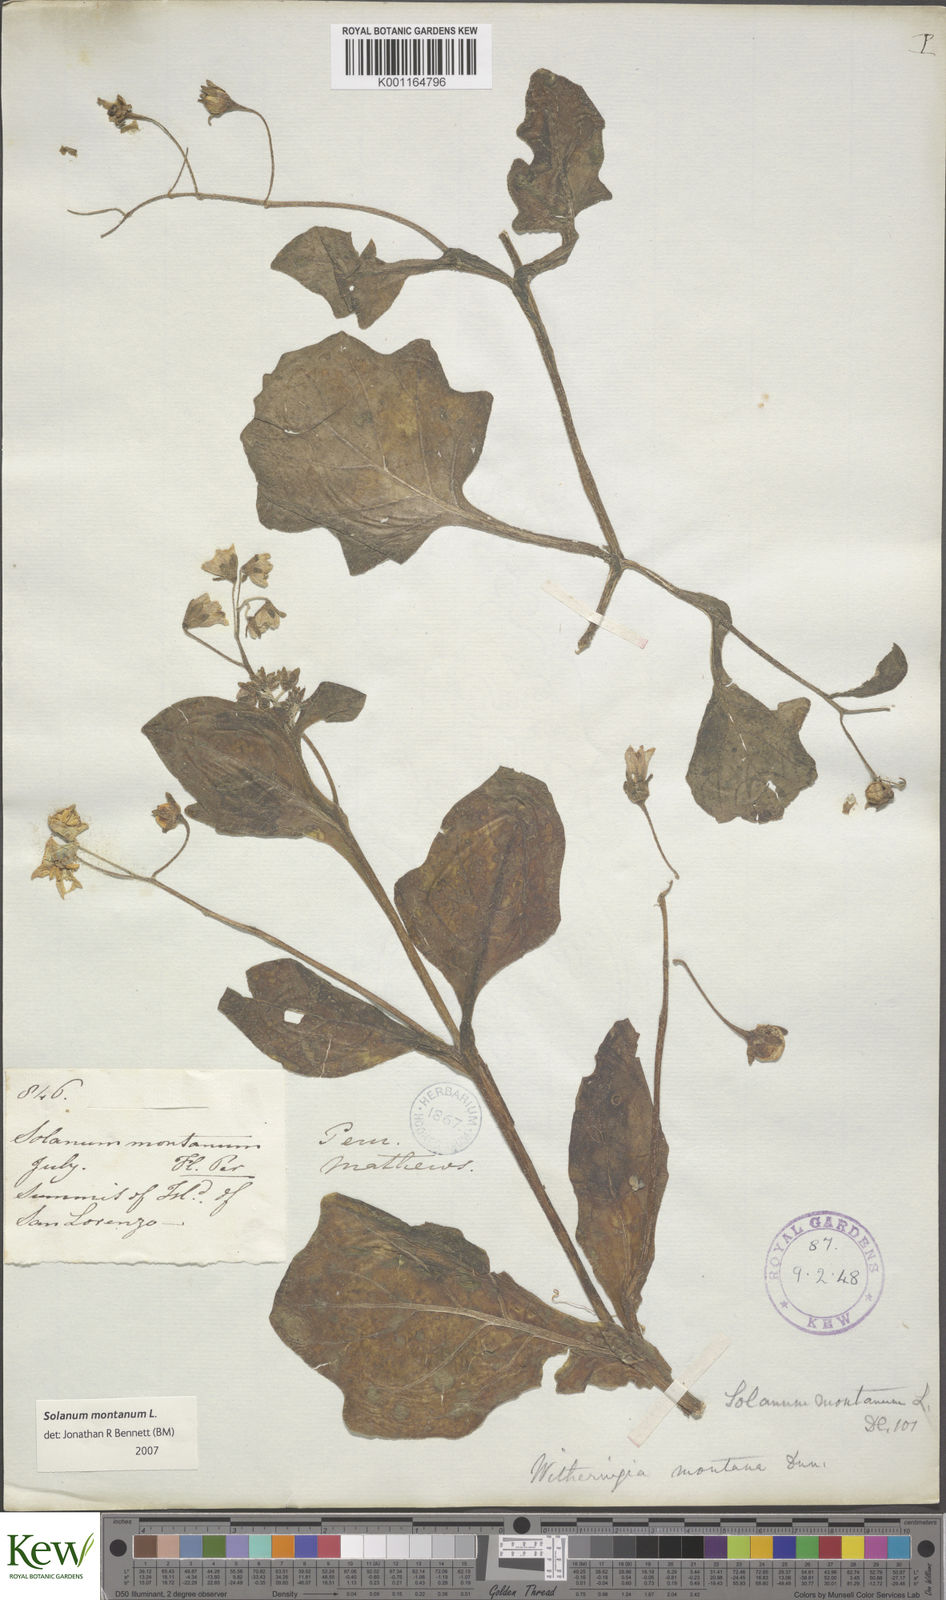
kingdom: Plantae
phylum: Tracheophyta
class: Magnoliopsida
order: Solanales
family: Solanaceae
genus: Solanum
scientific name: Solanum montanum
